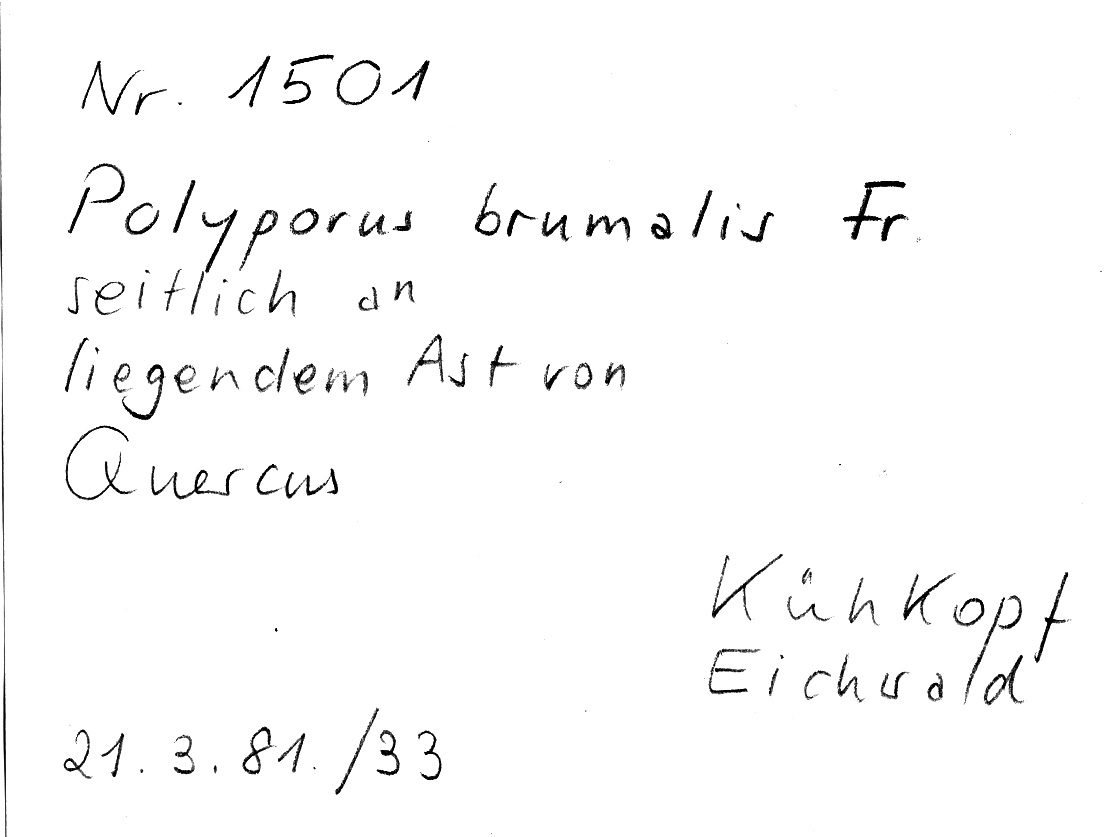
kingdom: Plantae
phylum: Tracheophyta
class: Magnoliopsida
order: Fagales
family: Fagaceae
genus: Quercus
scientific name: Quercus
